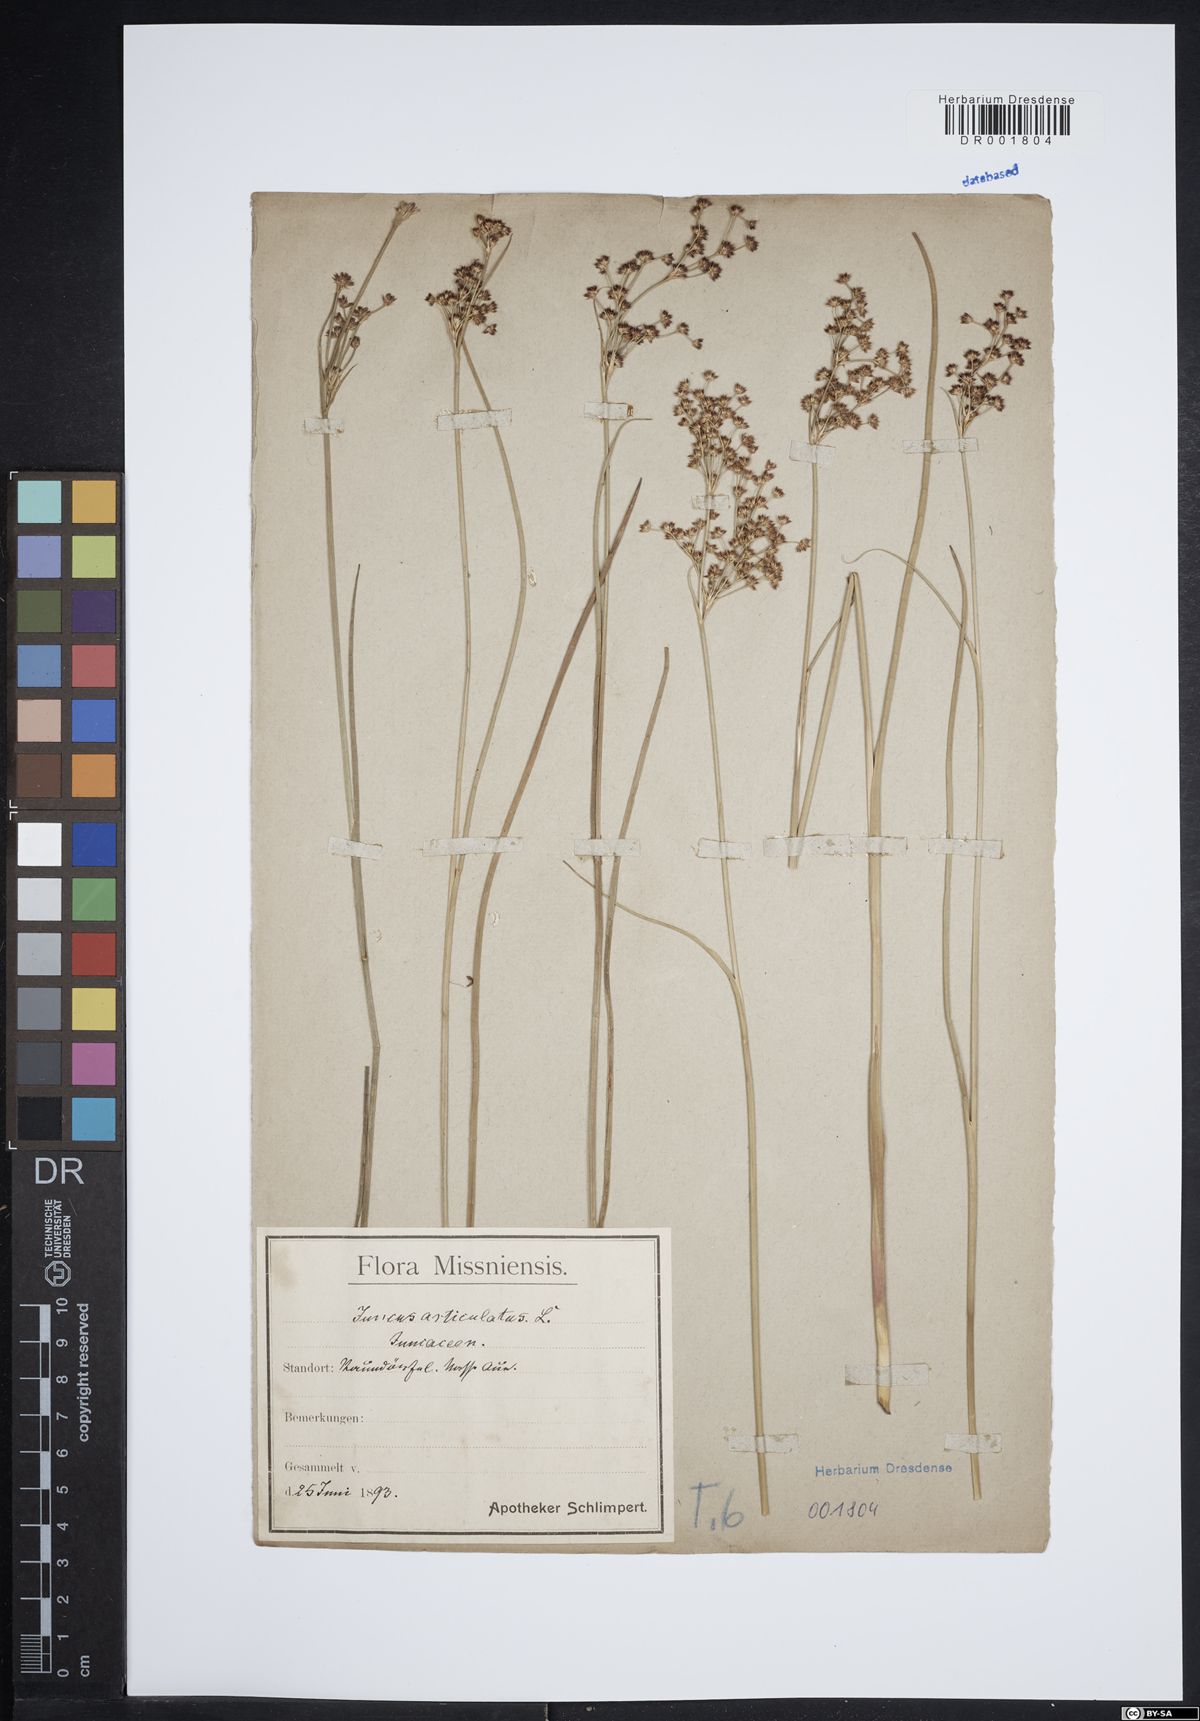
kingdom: Plantae
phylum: Tracheophyta
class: Liliopsida
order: Poales
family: Juncaceae
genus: Juncus
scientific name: Juncus acutiflorus
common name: Sharp-flowered rush
